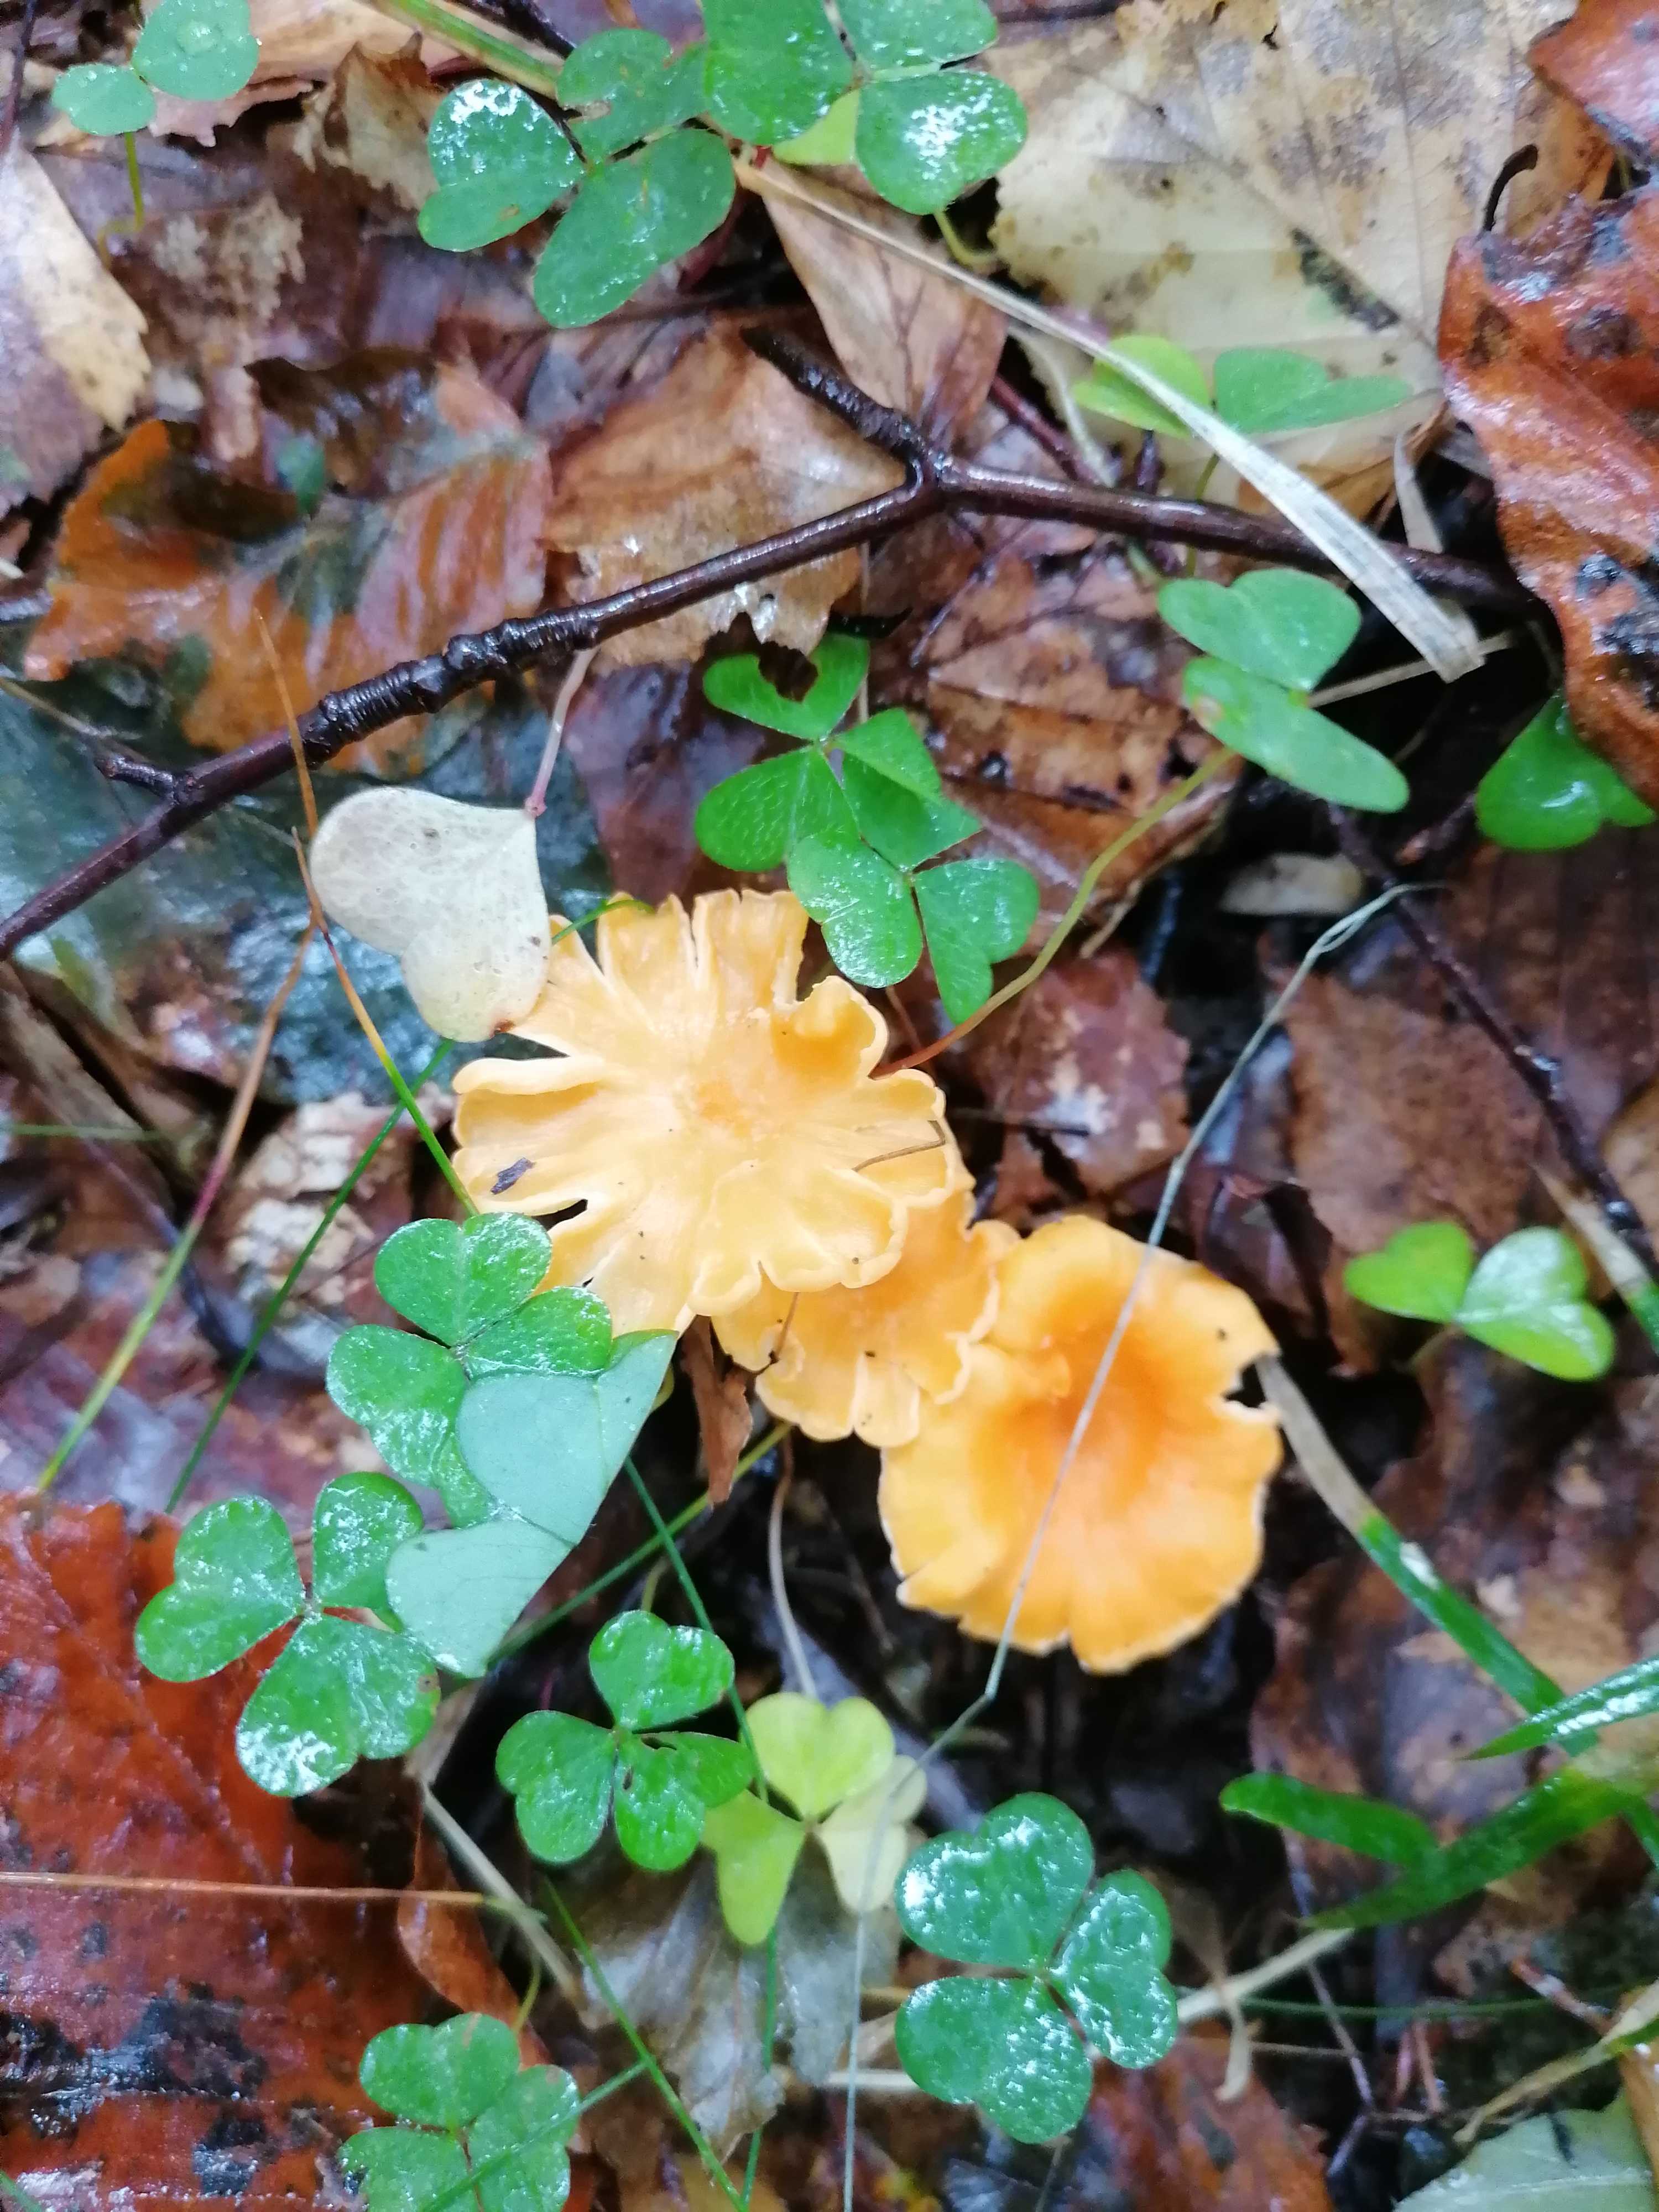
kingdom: Fungi
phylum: Basidiomycota
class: Agaricomycetes
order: Cantharellales
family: Hydnaceae
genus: Cantharellus
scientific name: Cantharellus friesii
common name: abrikos-kantarel
